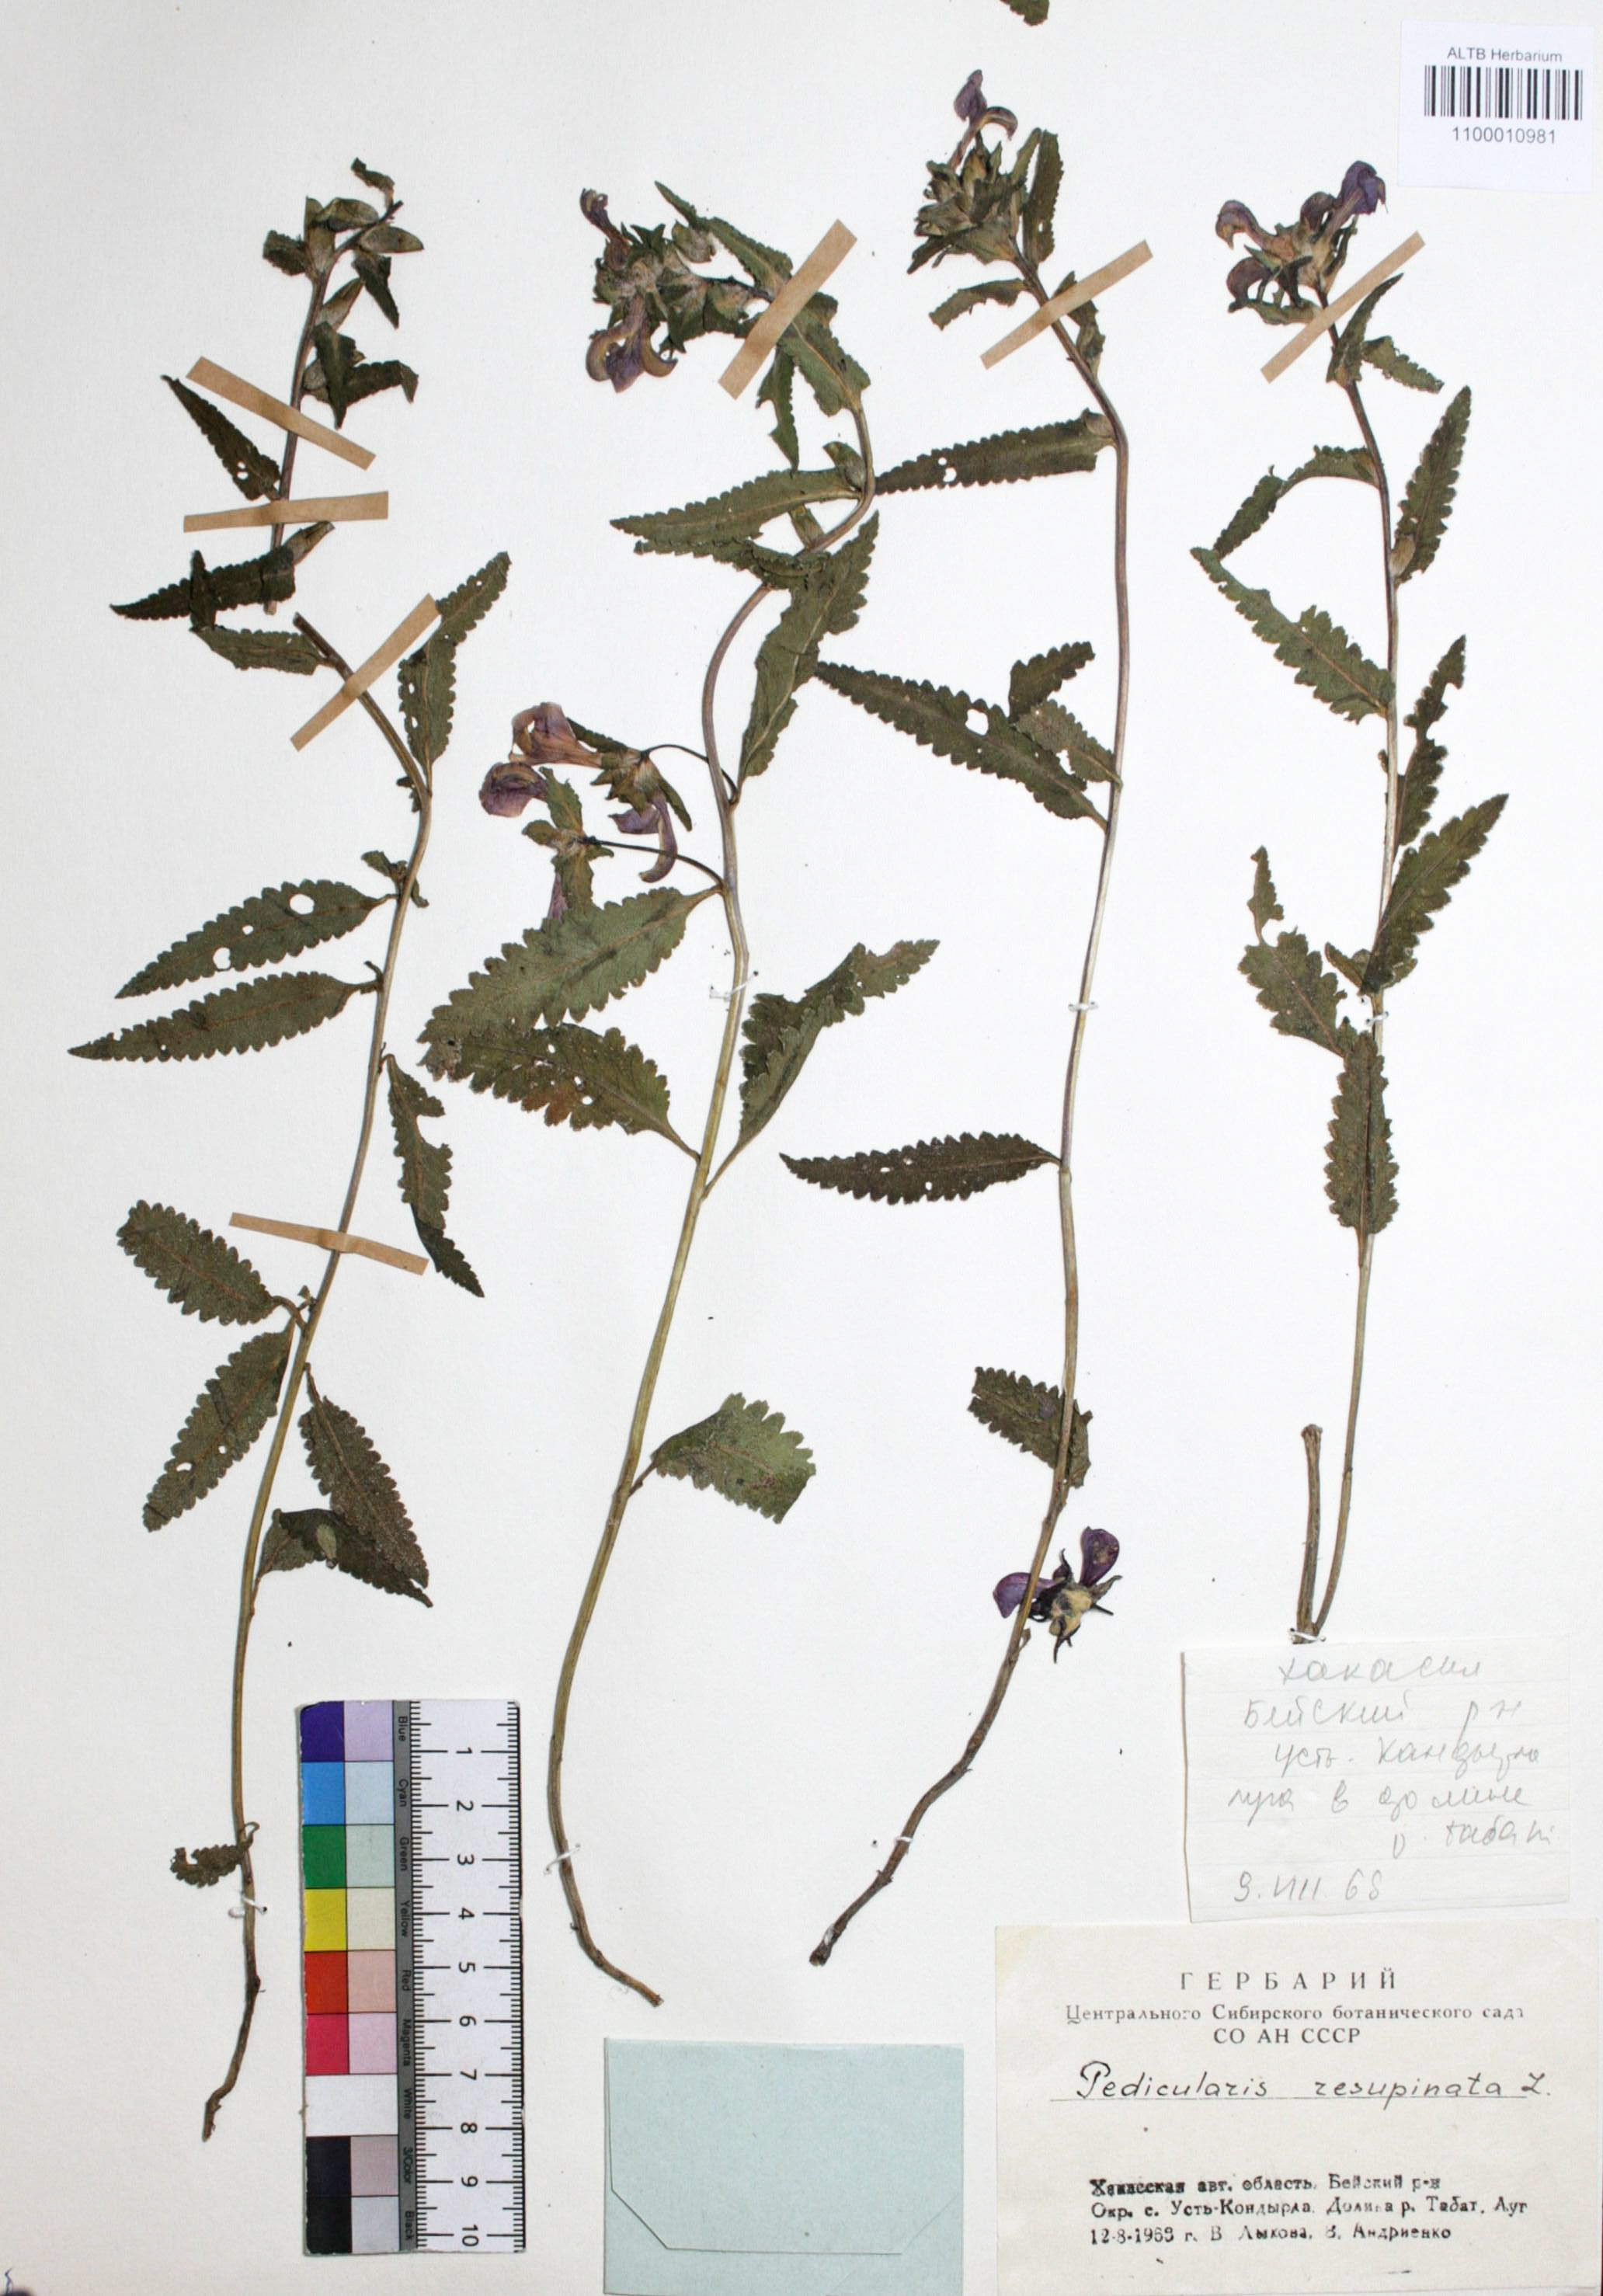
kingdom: Plantae
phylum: Tracheophyta
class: Magnoliopsida
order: Lamiales
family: Orobanchaceae
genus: Pedicularis
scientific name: Pedicularis resupinata
